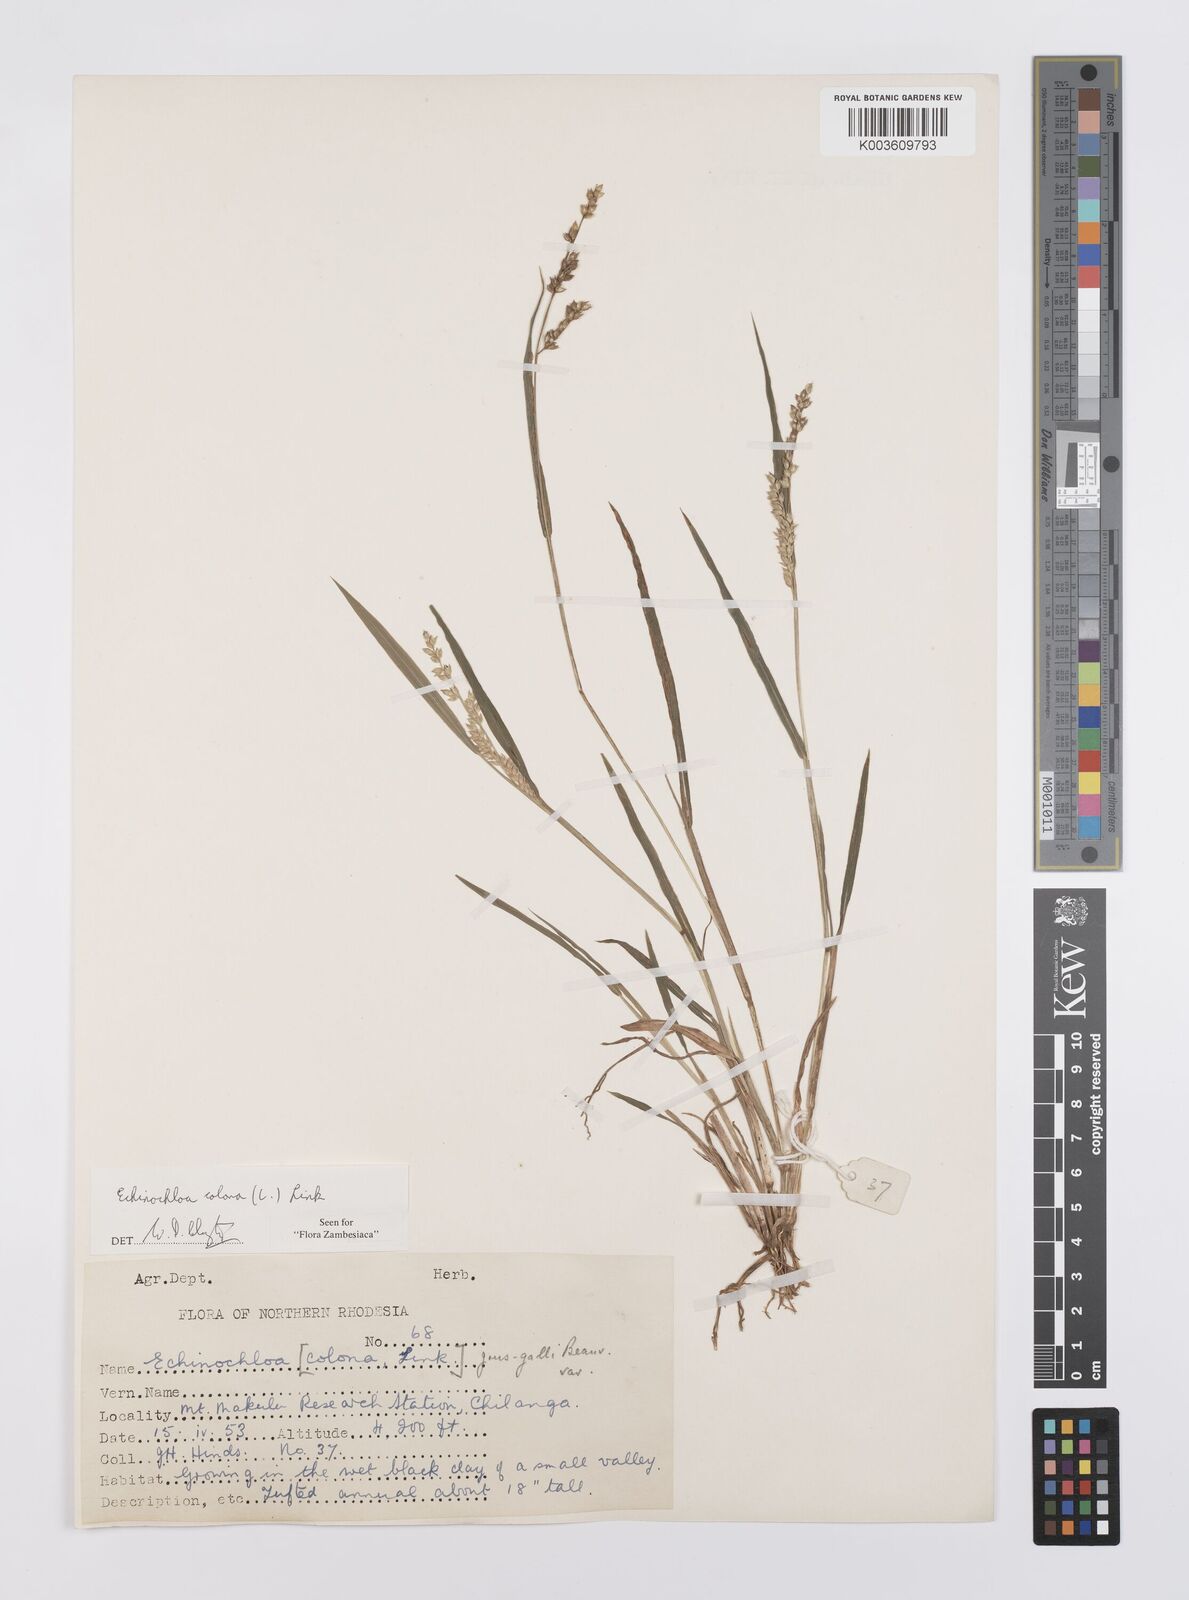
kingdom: Plantae
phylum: Tracheophyta
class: Liliopsida
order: Poales
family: Poaceae
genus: Echinochloa
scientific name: Echinochloa colonum
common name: Jungle rice
